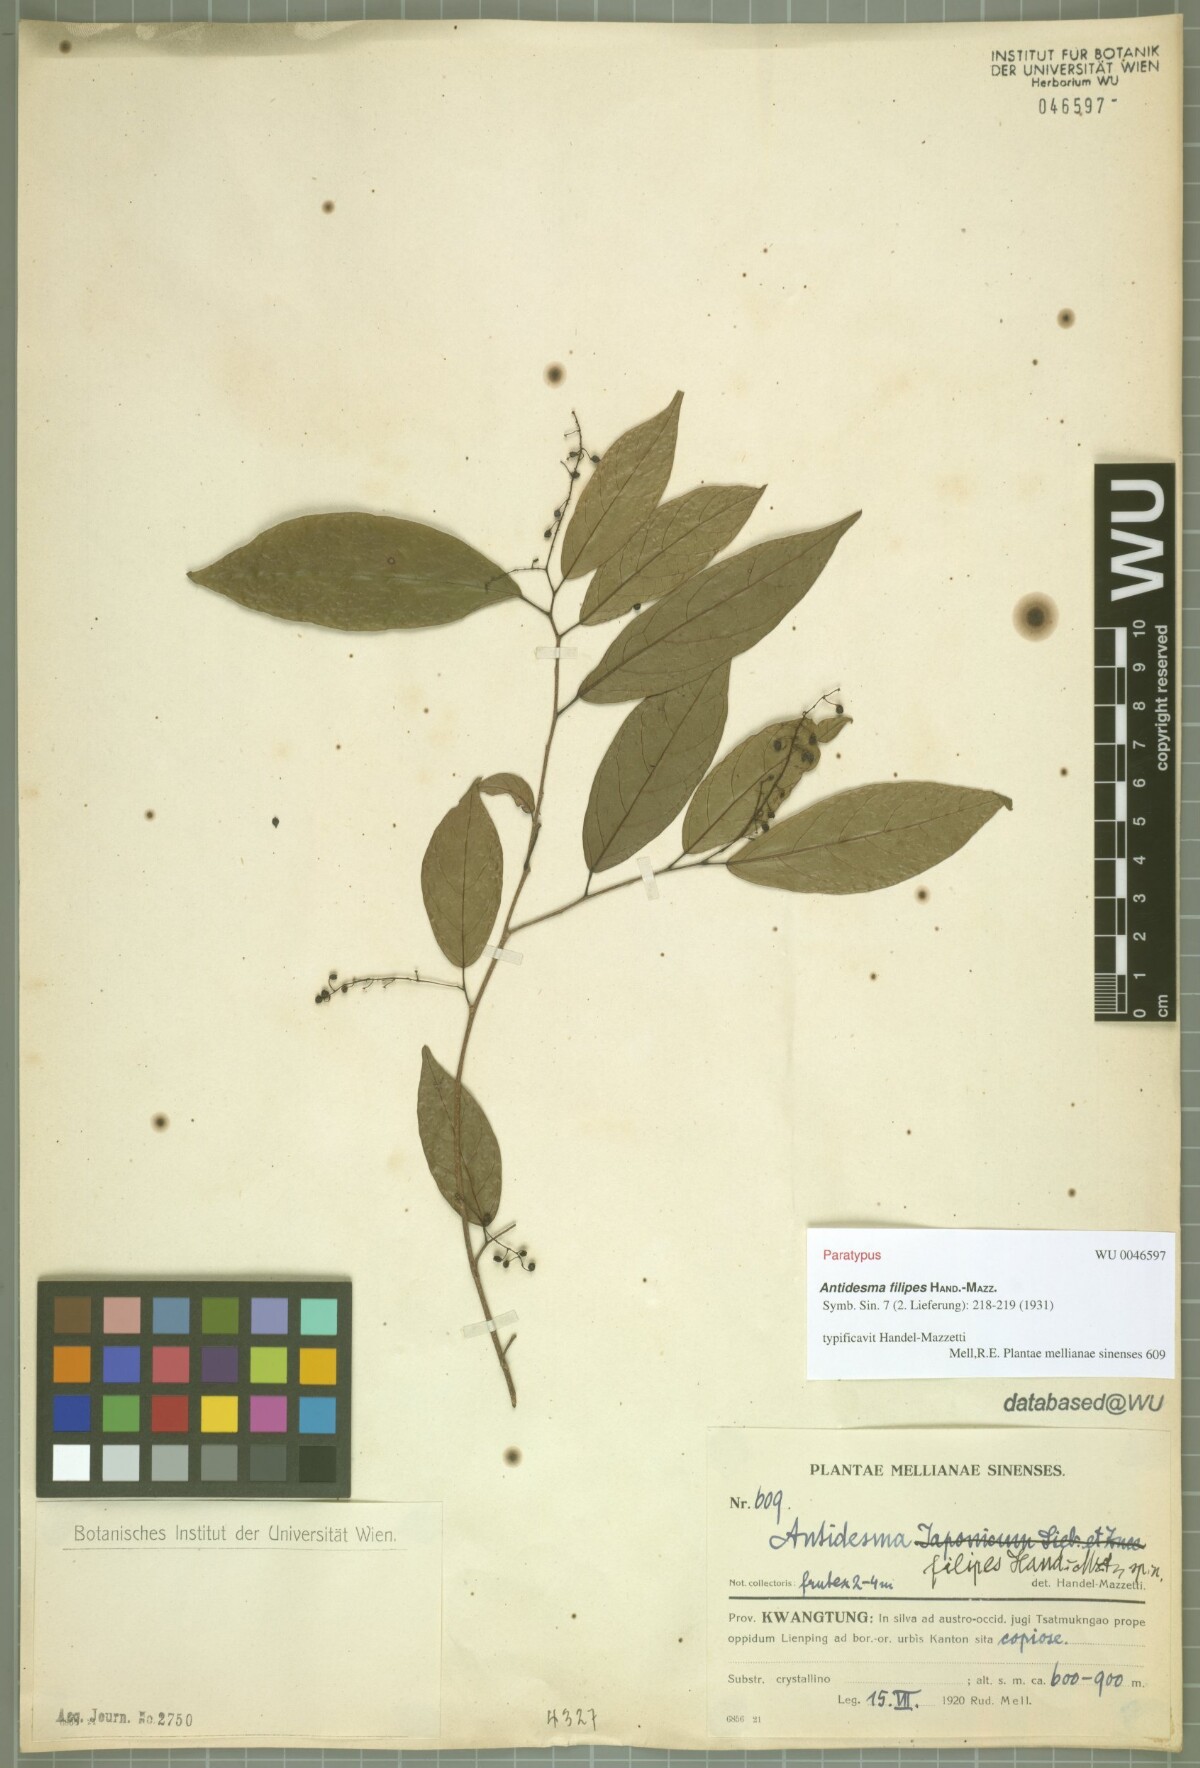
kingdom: Plantae
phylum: Tracheophyta
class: Magnoliopsida
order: Malpighiales
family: Phyllanthaceae
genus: Antidesma
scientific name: Antidesma japonicum
